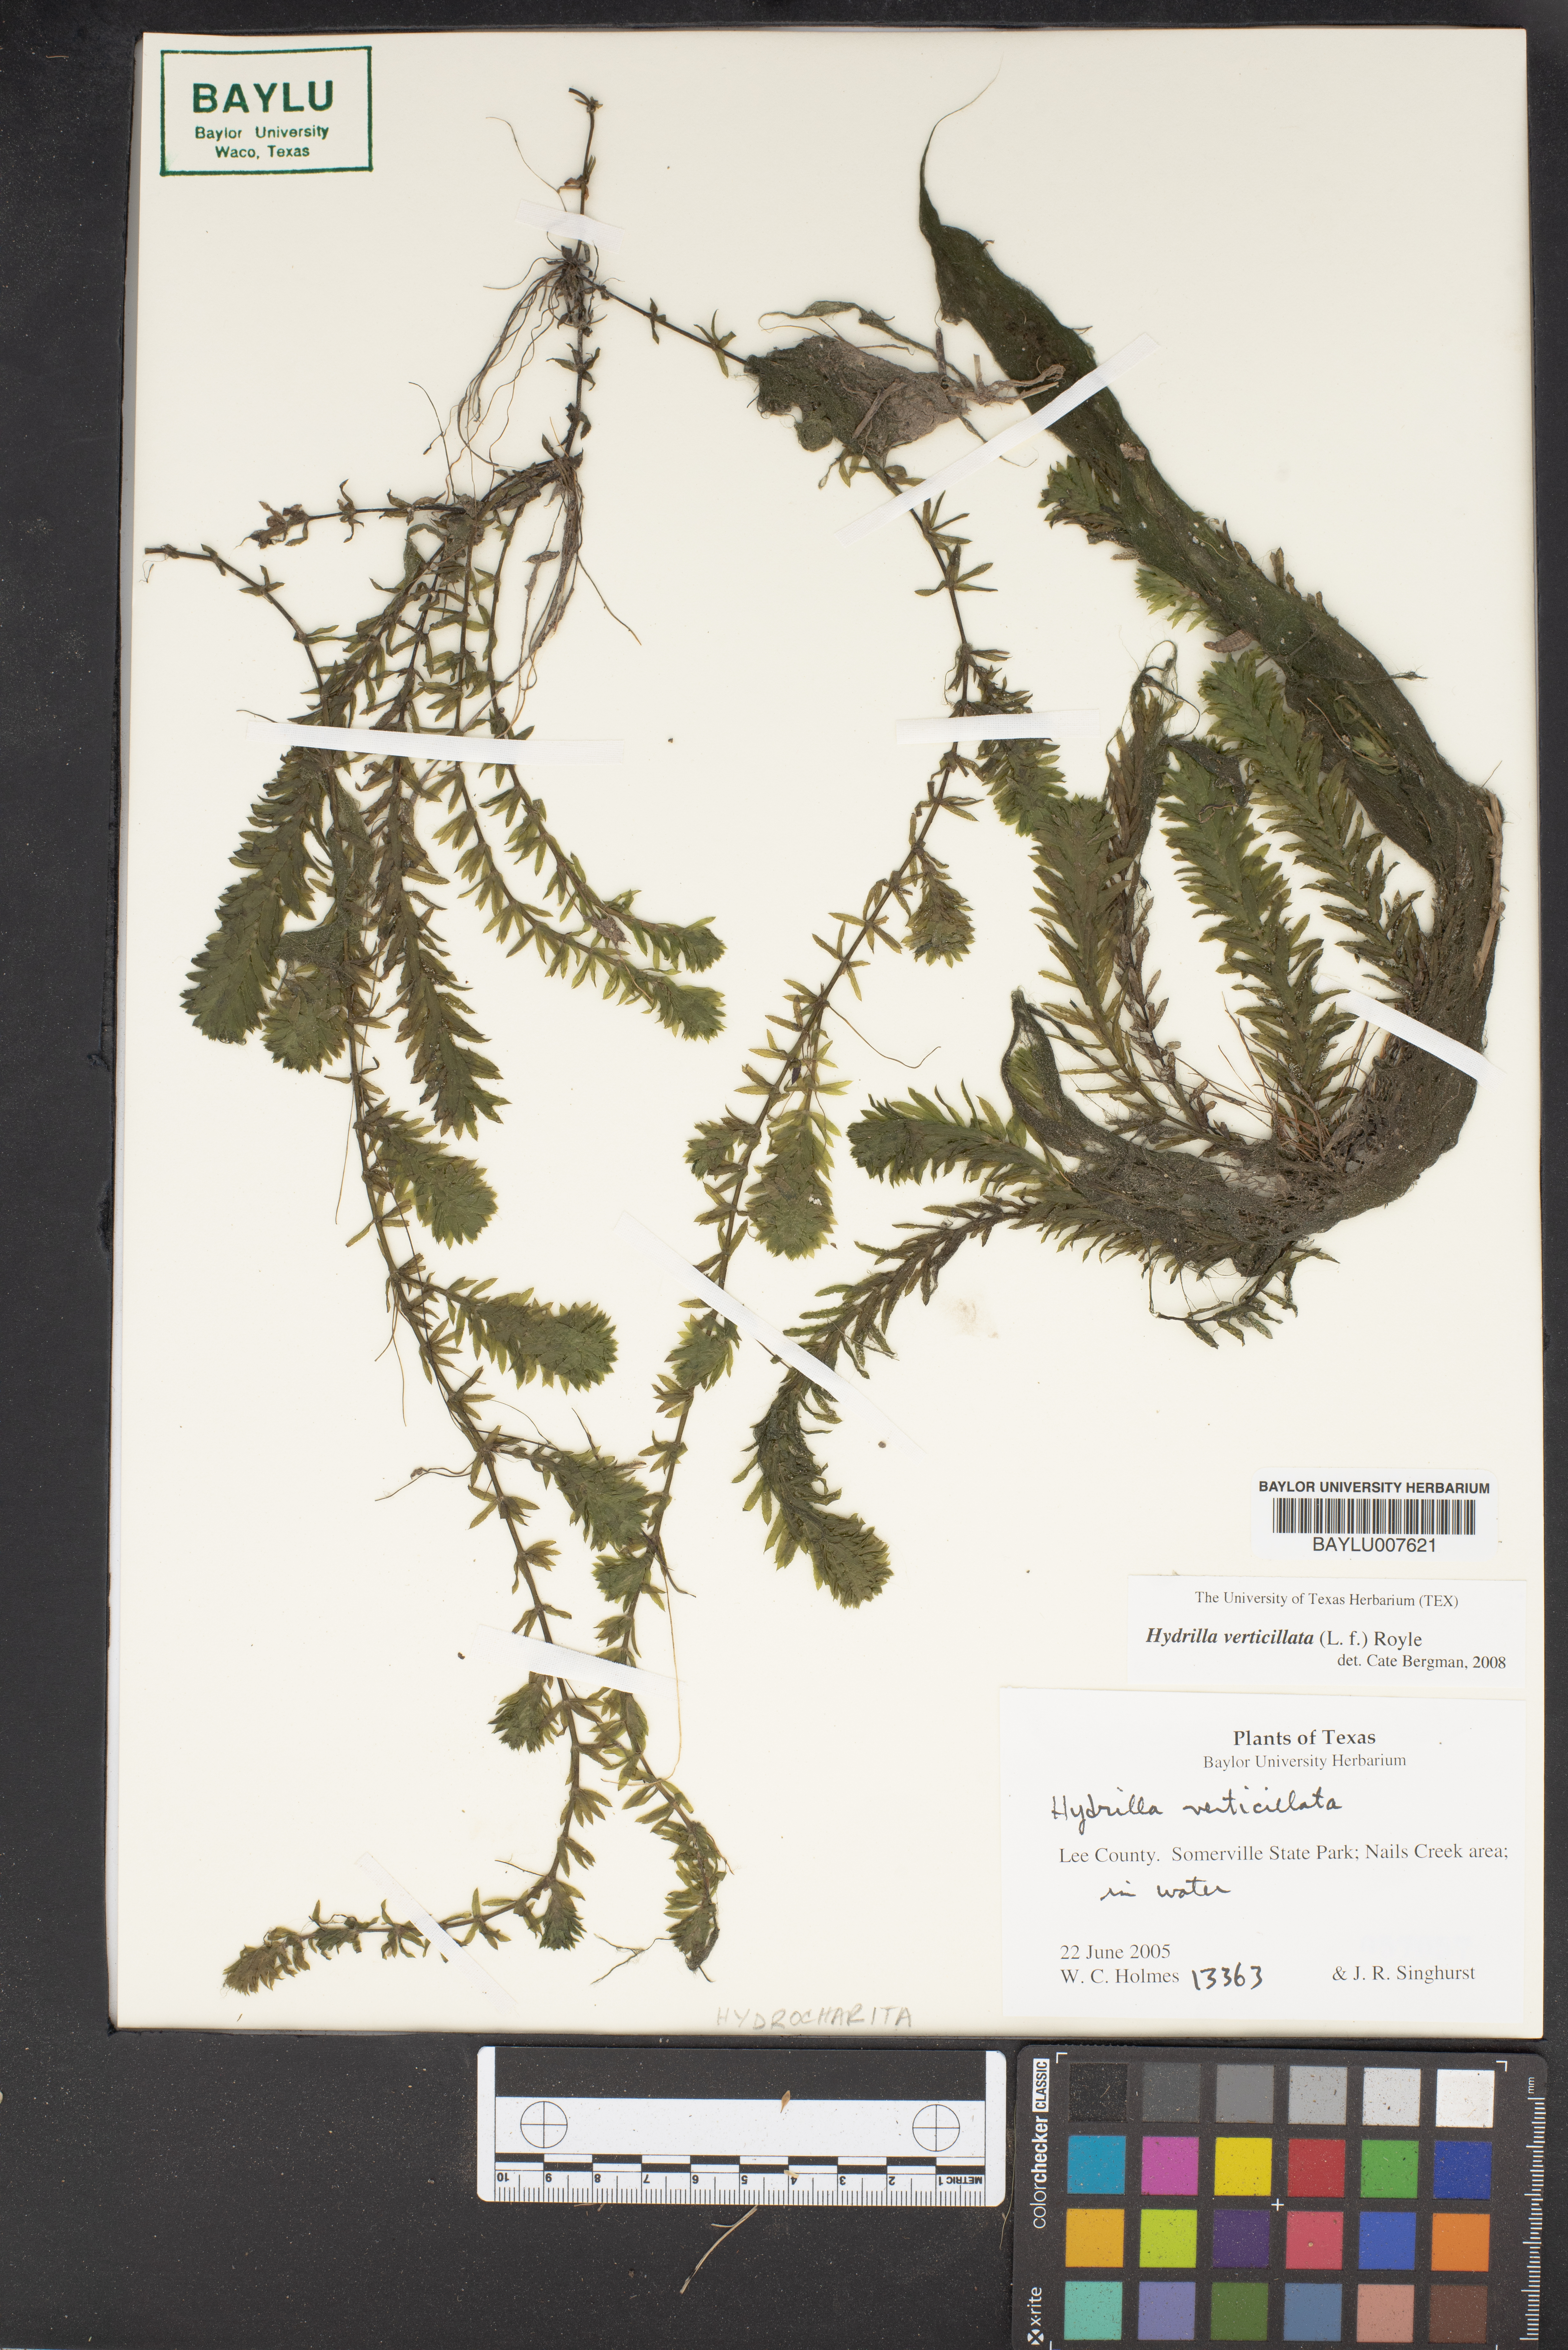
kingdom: Plantae
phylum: Tracheophyta
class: Liliopsida
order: Alismatales
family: Hydrocharitaceae
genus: Hydrilla
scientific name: Hydrilla verticillata
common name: Florida-elodea
